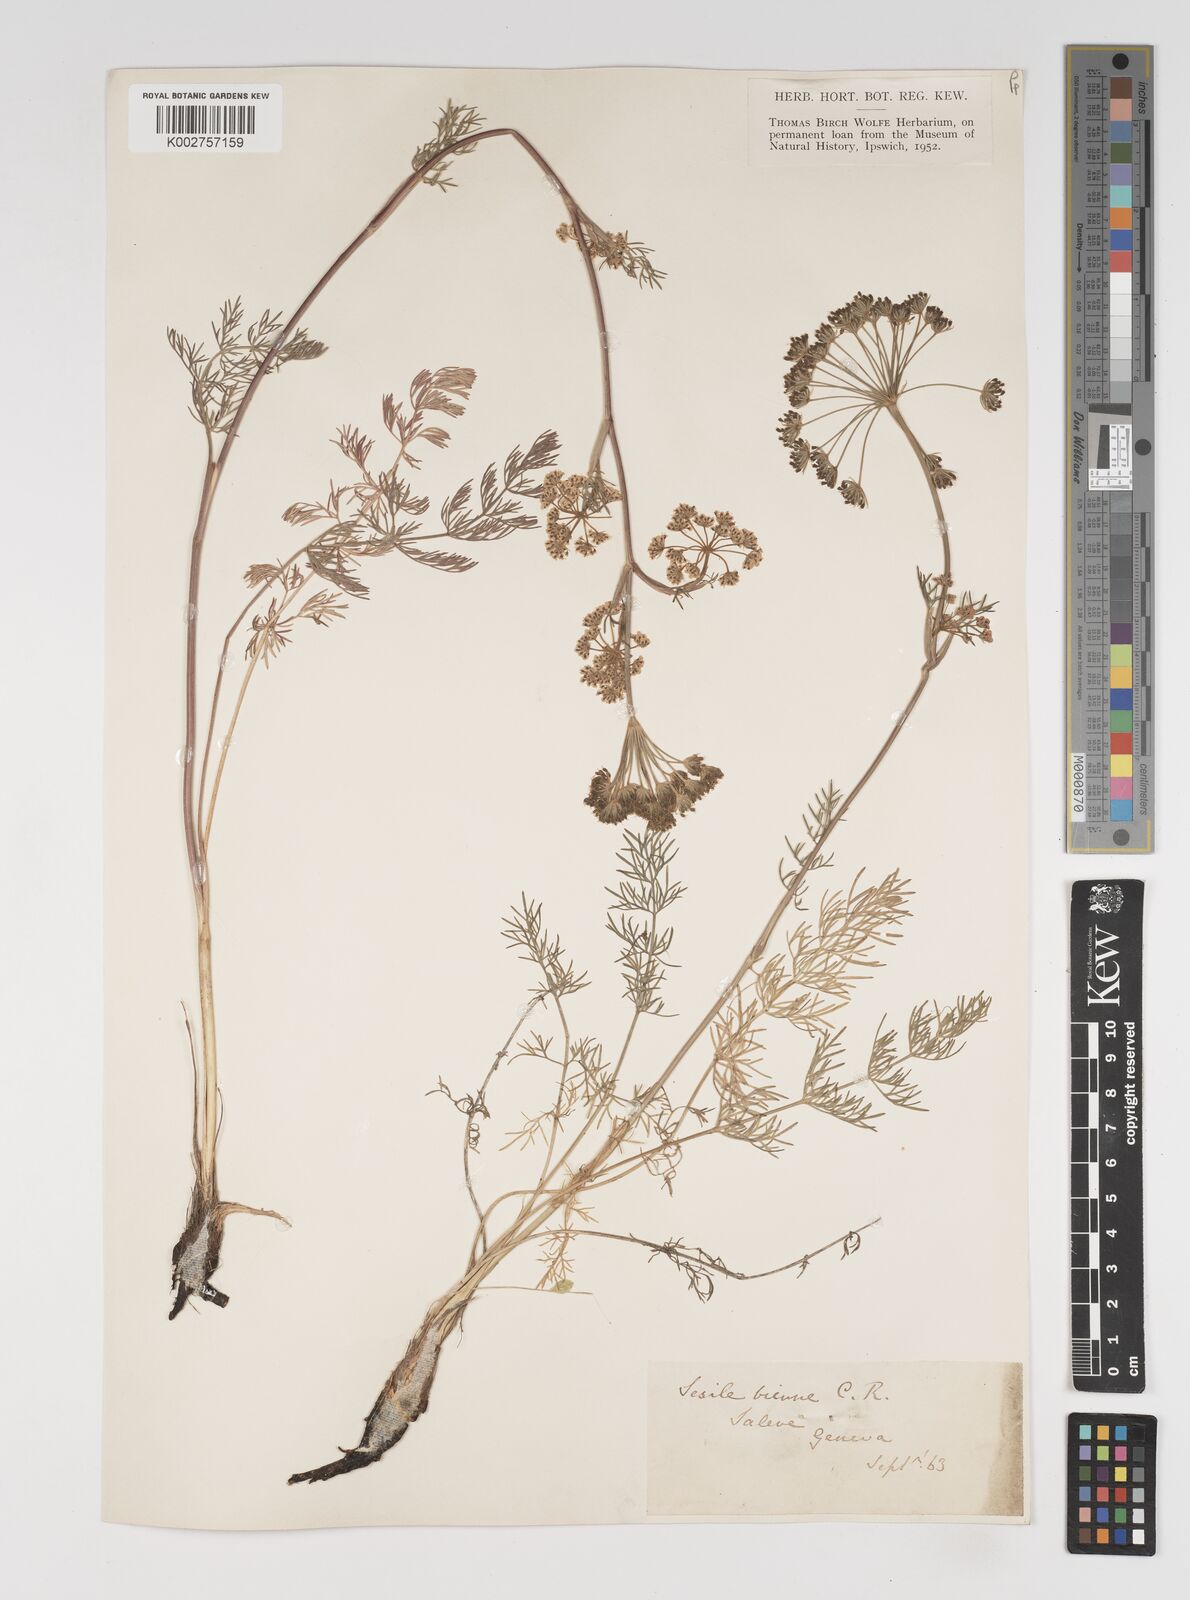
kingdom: Plantae
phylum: Tracheophyta
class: Magnoliopsida
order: Apiales
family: Apiaceae
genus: Seseli
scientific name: Seseli annuum
